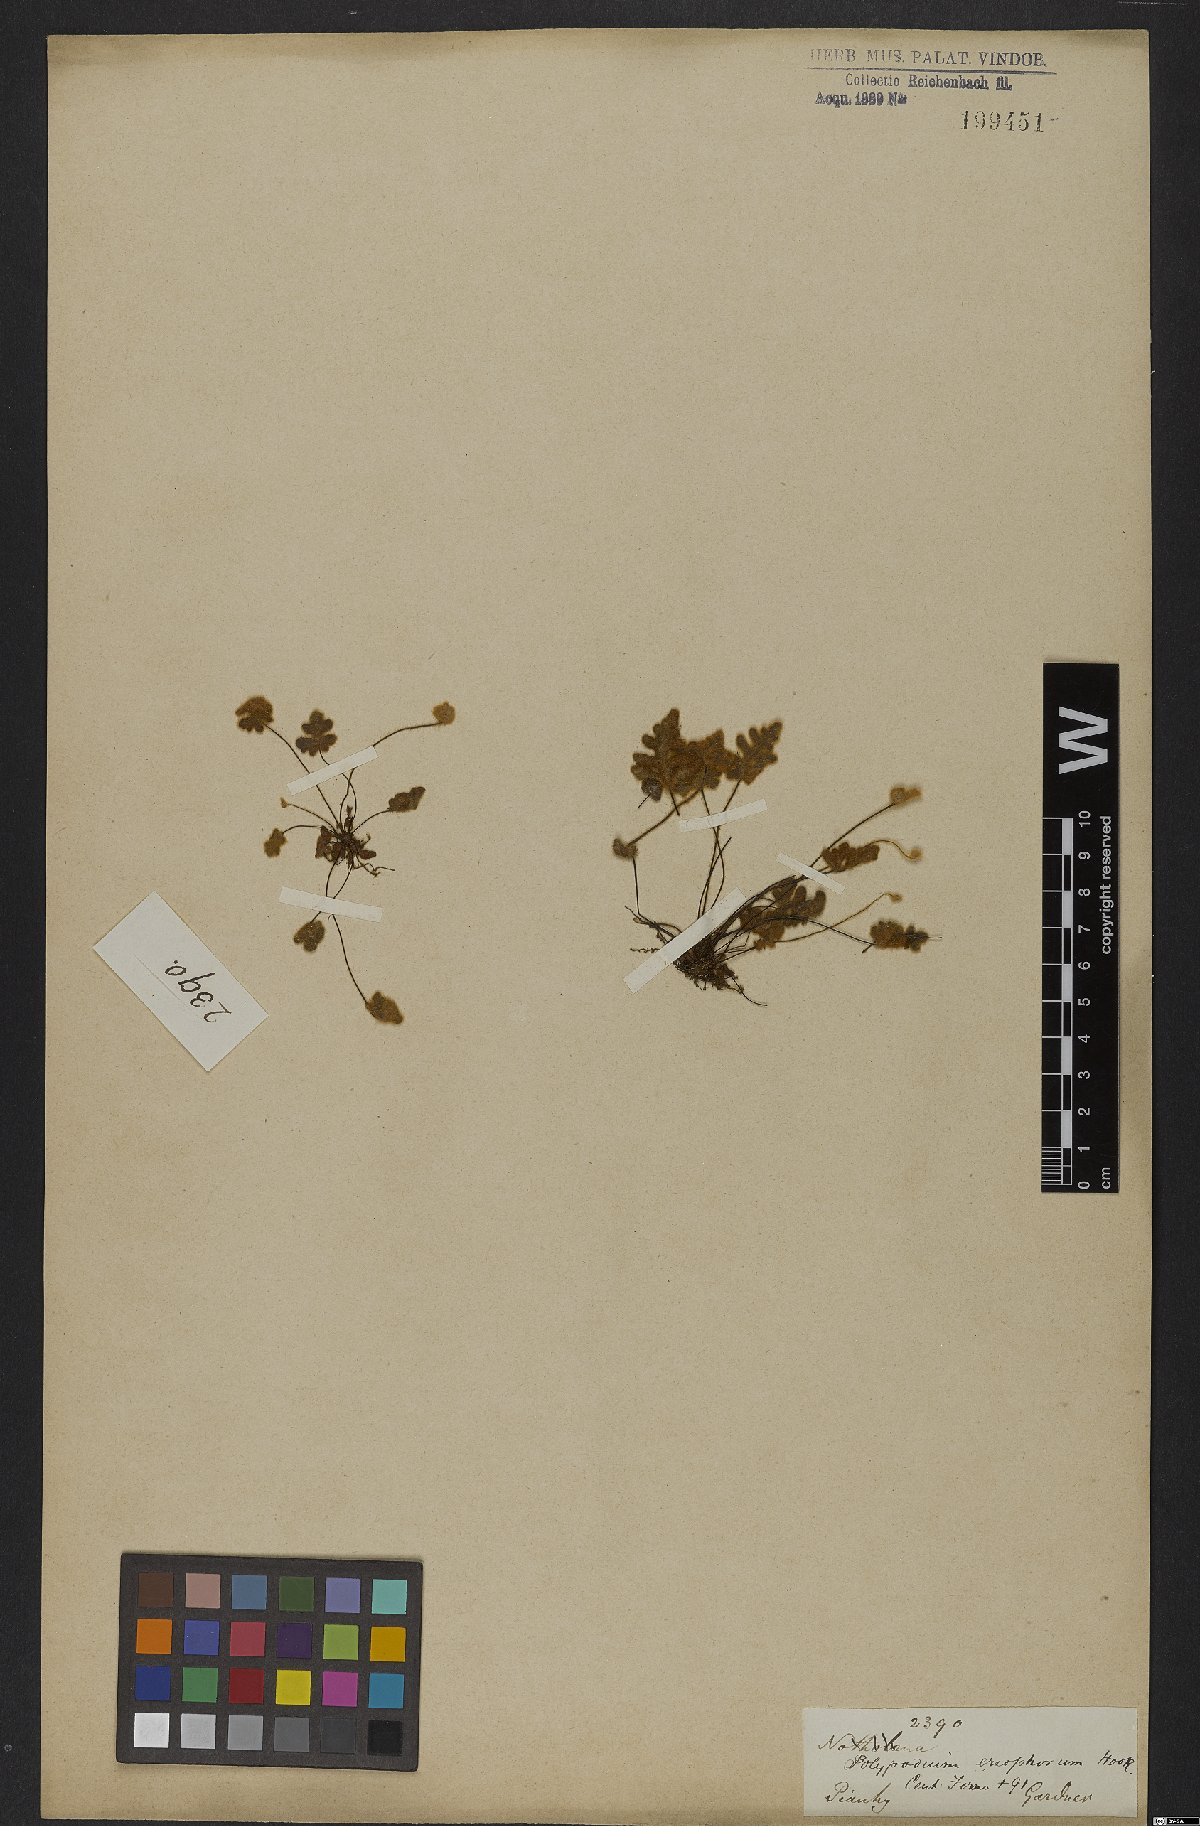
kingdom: Plantae
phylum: Tracheophyta
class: Polypodiopsida
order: Polypodiales
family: Pteridaceae
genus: Mineirella
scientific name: Mineirella eriophora
